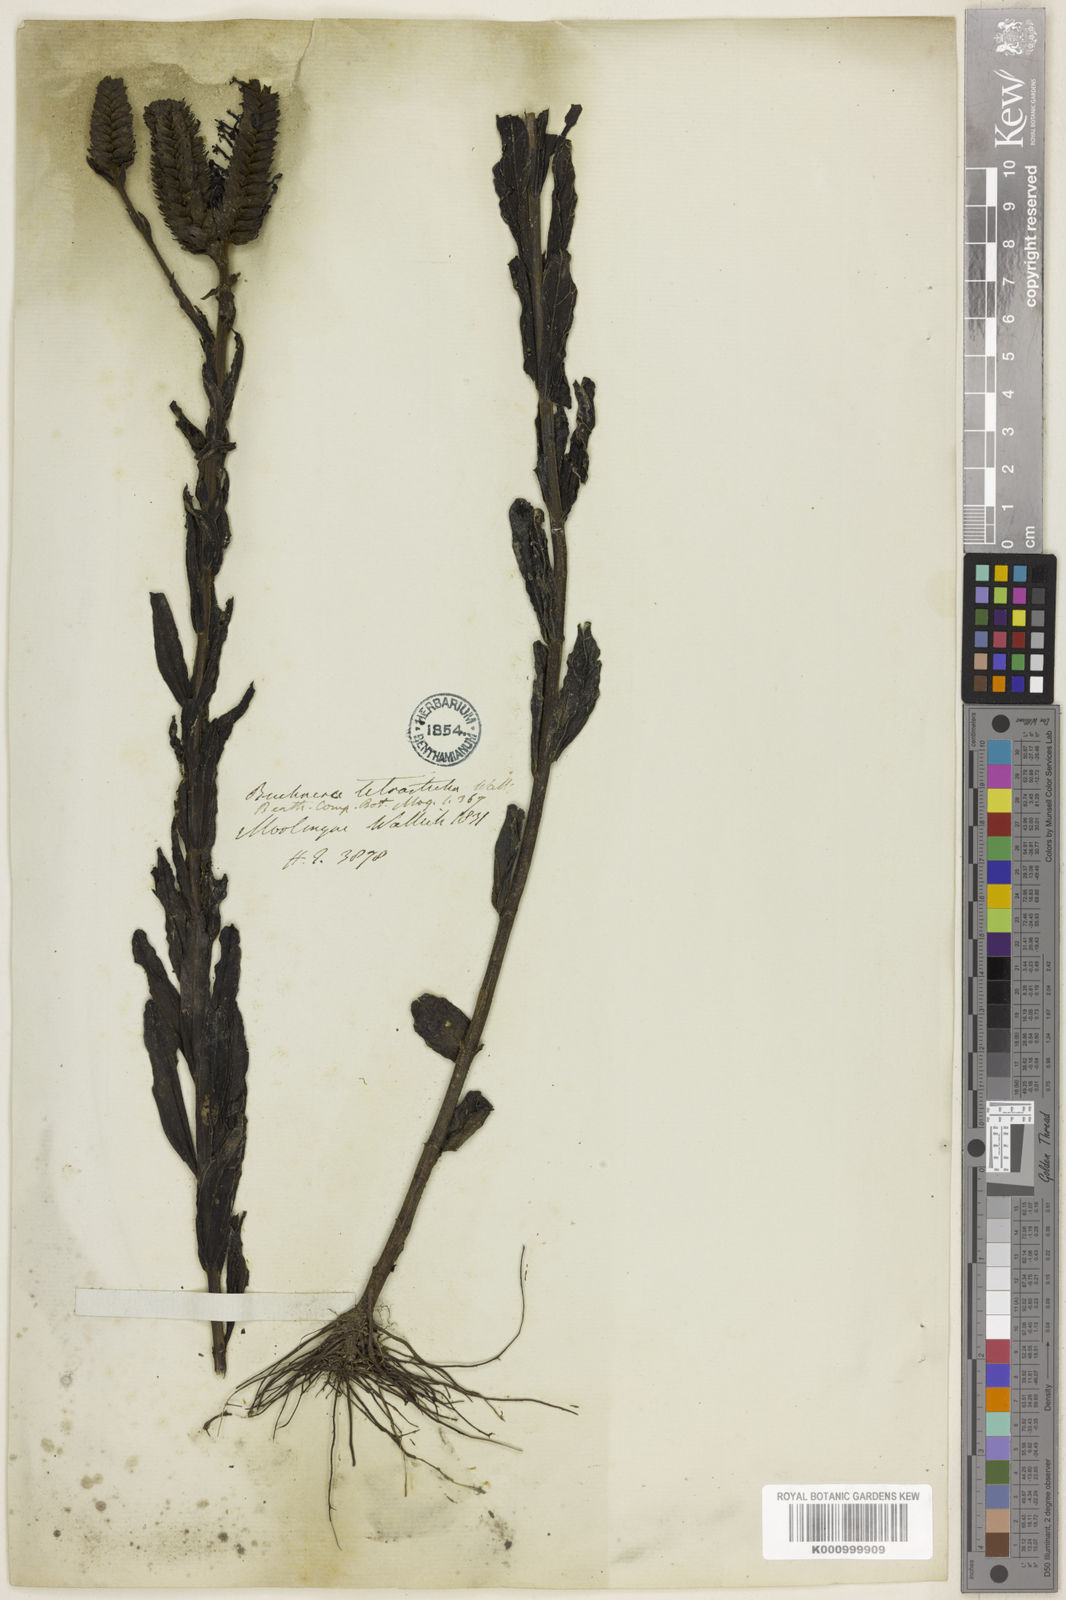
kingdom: Plantae
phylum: Tracheophyta
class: Magnoliopsida
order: Lamiales
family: Orobanchaceae
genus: Buchnera
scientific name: Buchnera tetrasticha
